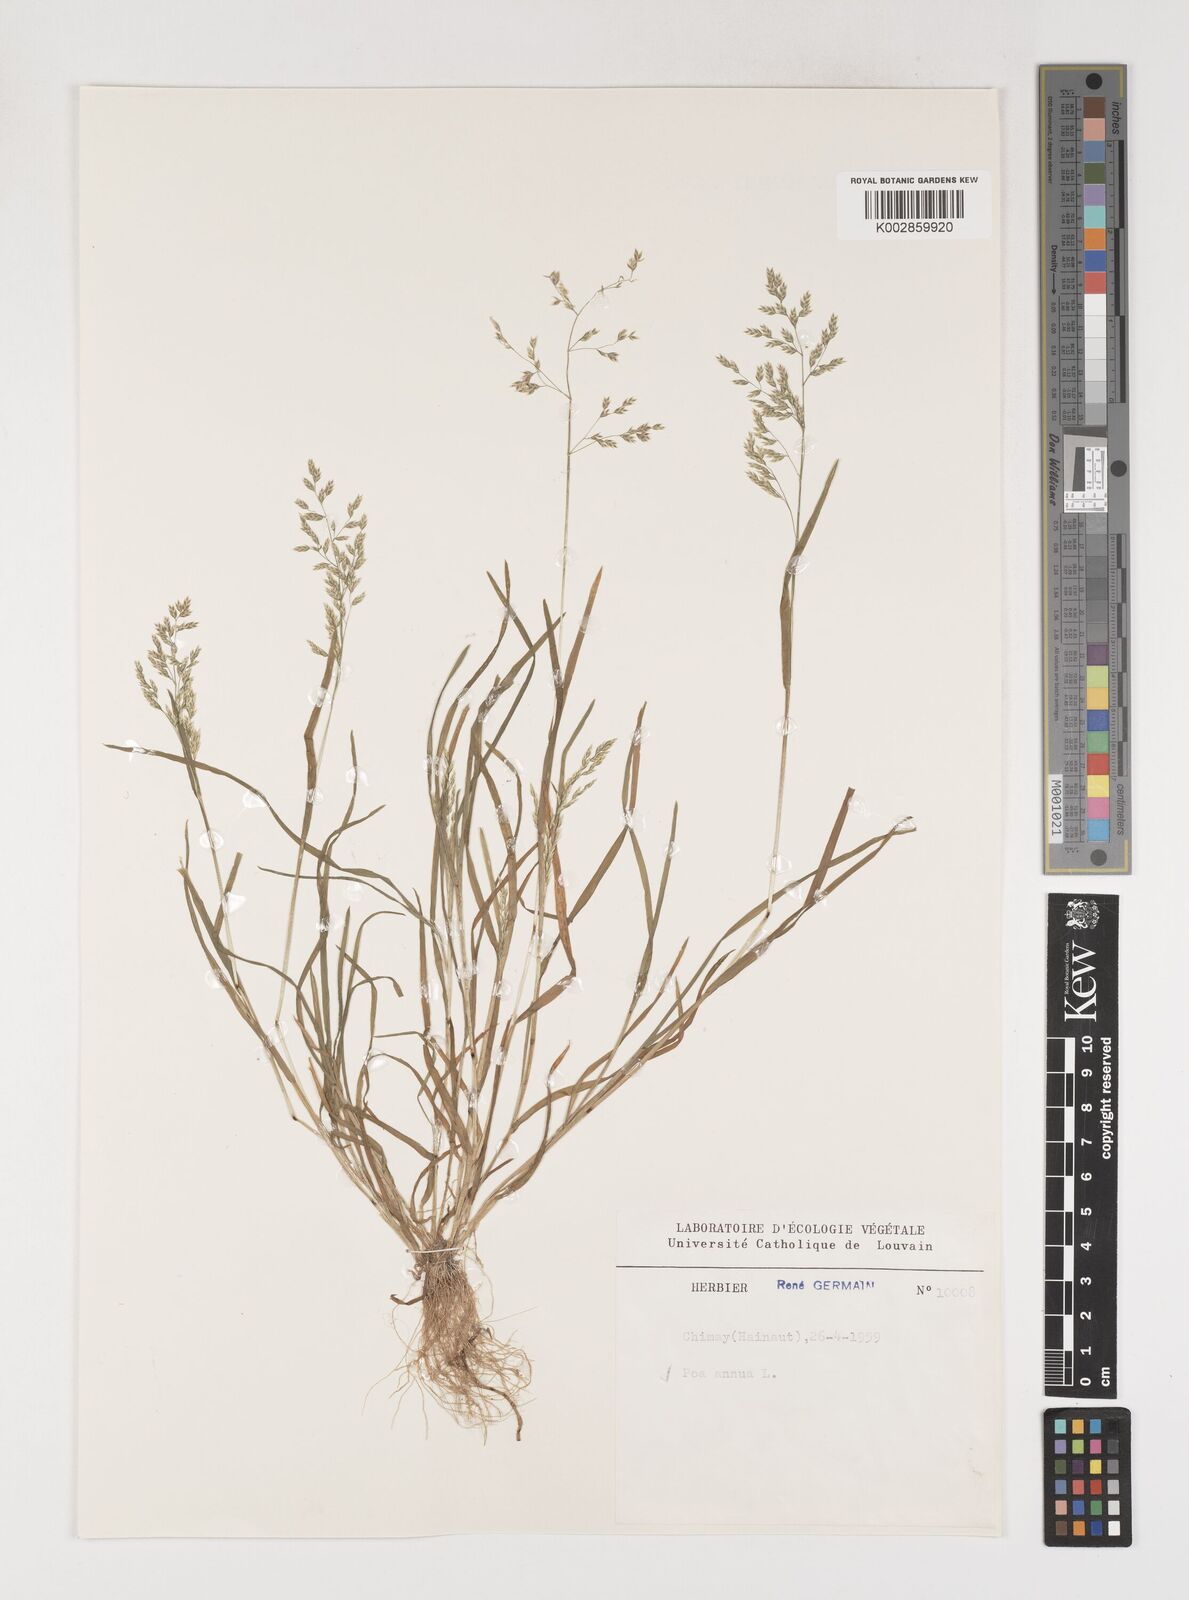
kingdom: Plantae
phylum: Tracheophyta
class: Liliopsida
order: Poales
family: Poaceae
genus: Poa
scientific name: Poa annua
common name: Annual bluegrass
